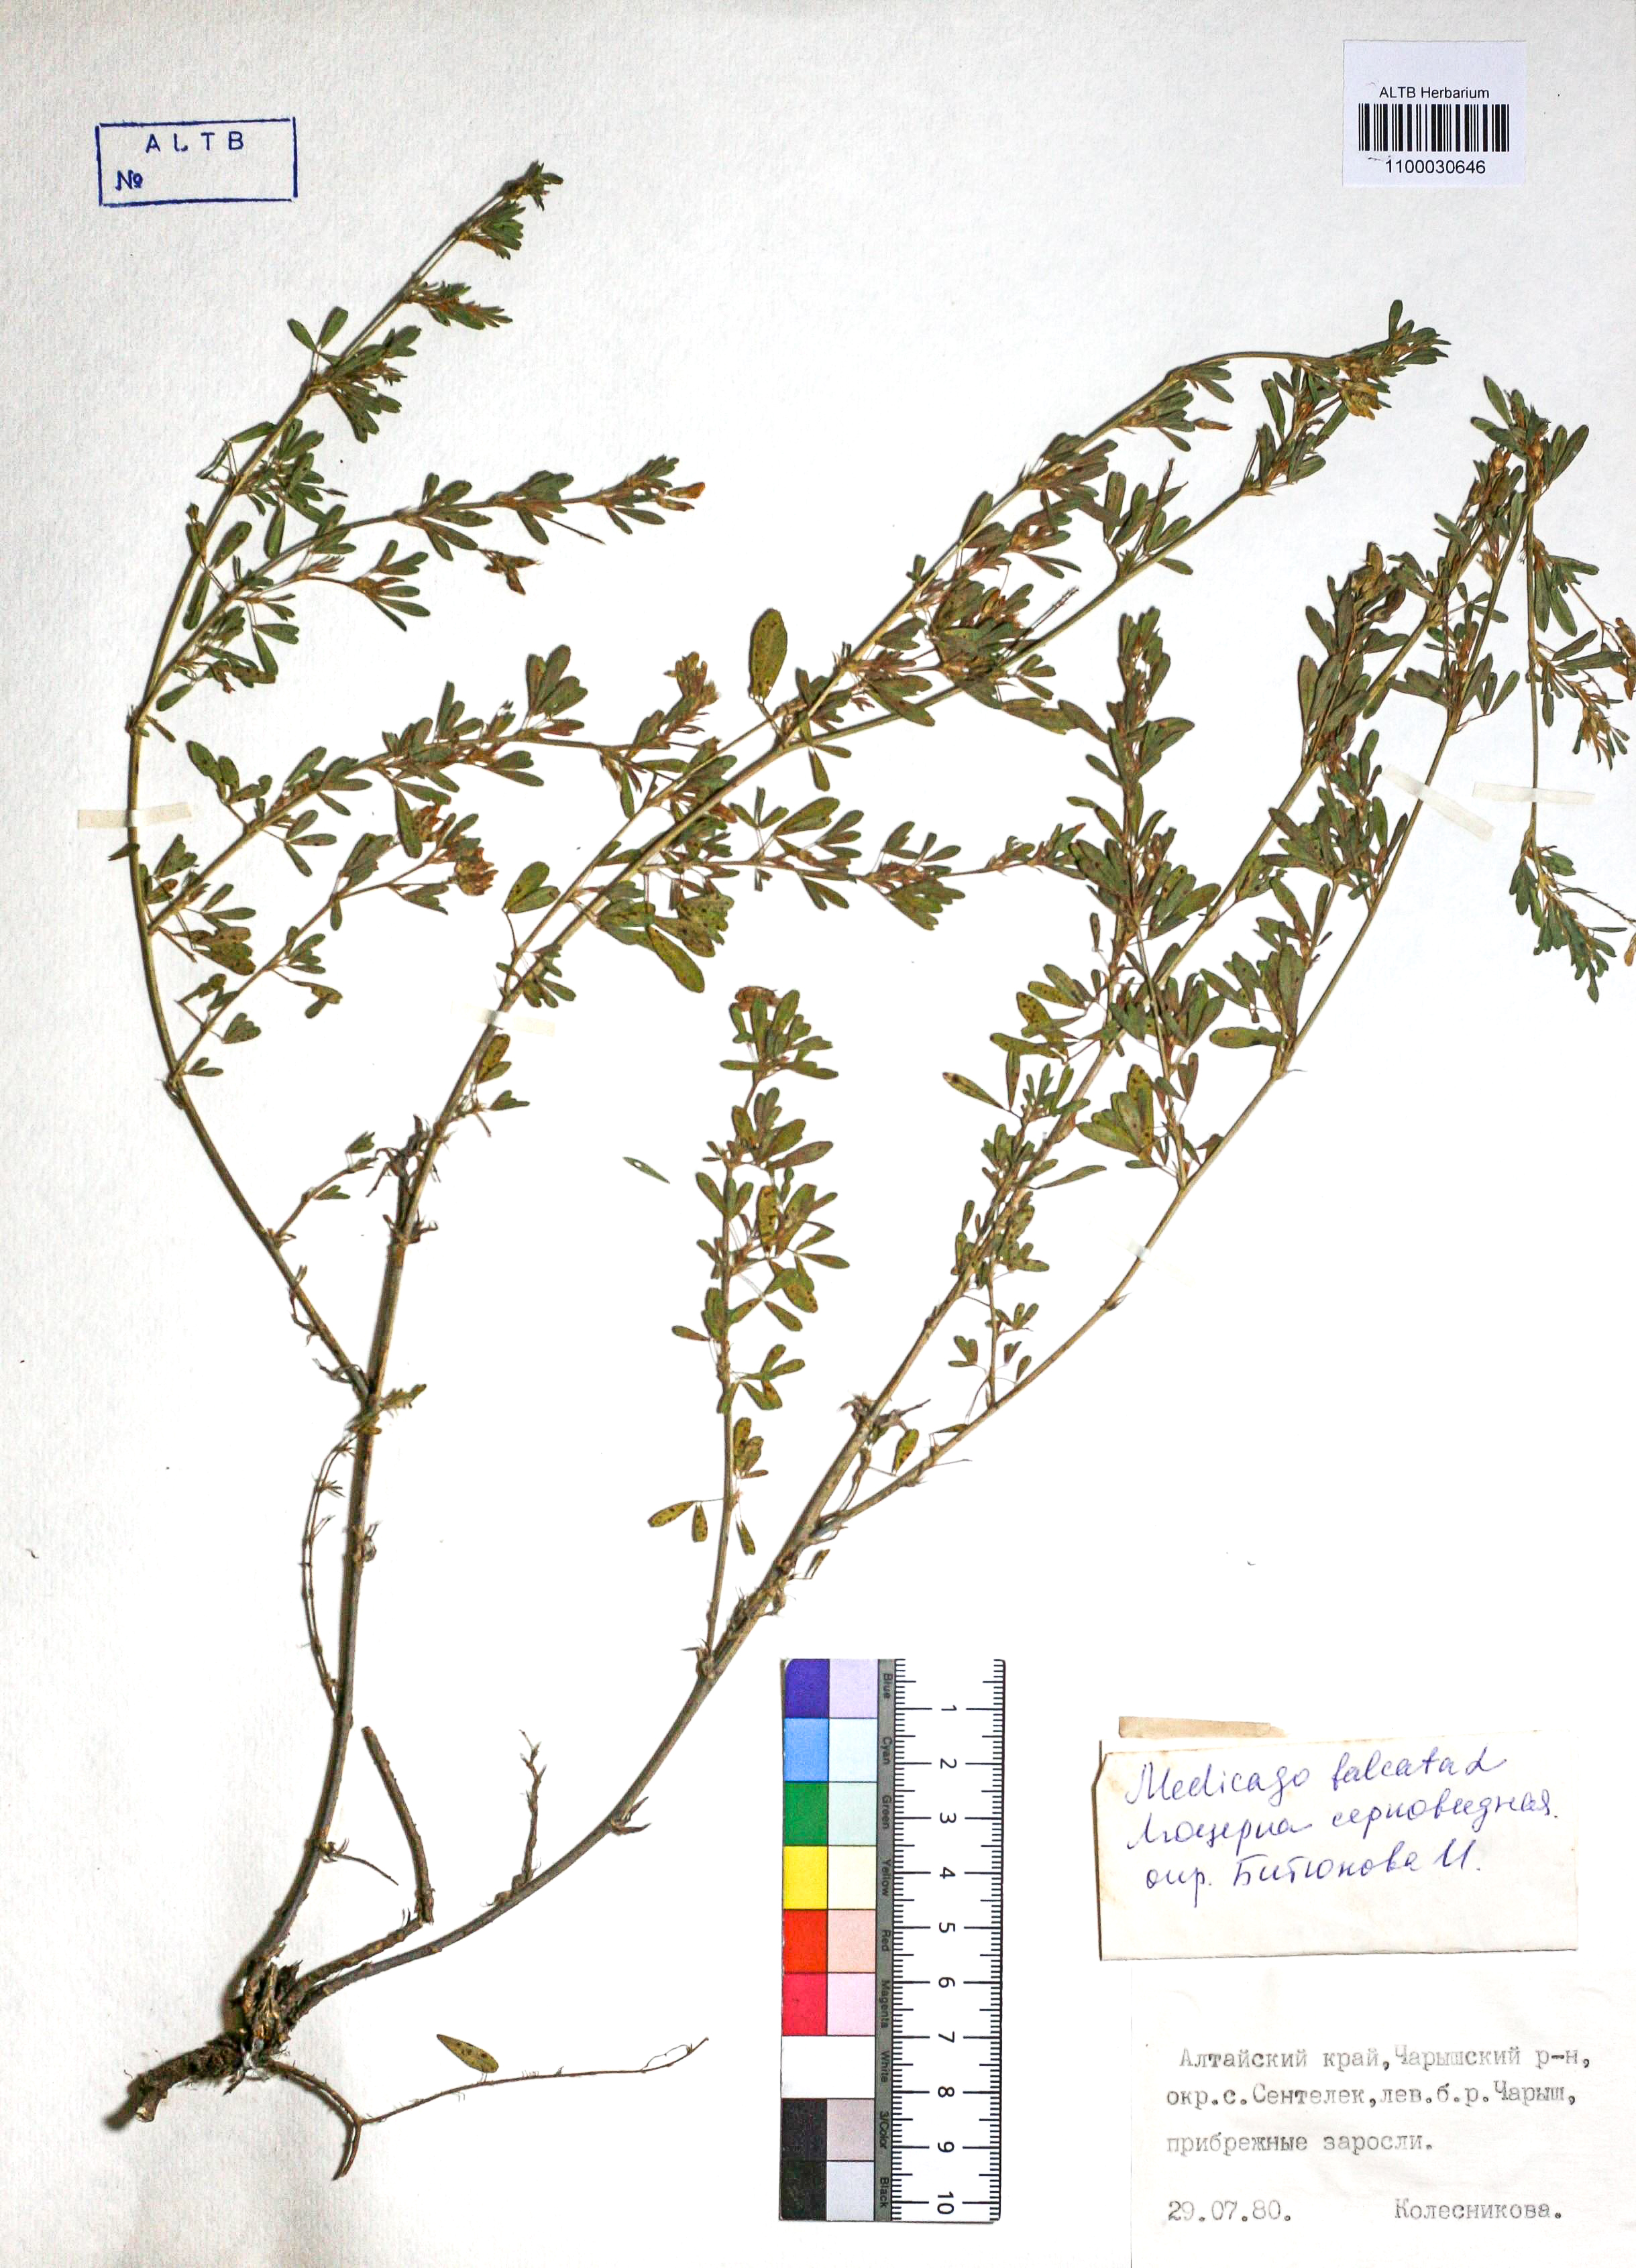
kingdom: Plantae
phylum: Tracheophyta
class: Magnoliopsida
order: Fabales
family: Fabaceae
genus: Medicago
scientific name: Medicago falcata
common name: Sickle medick
